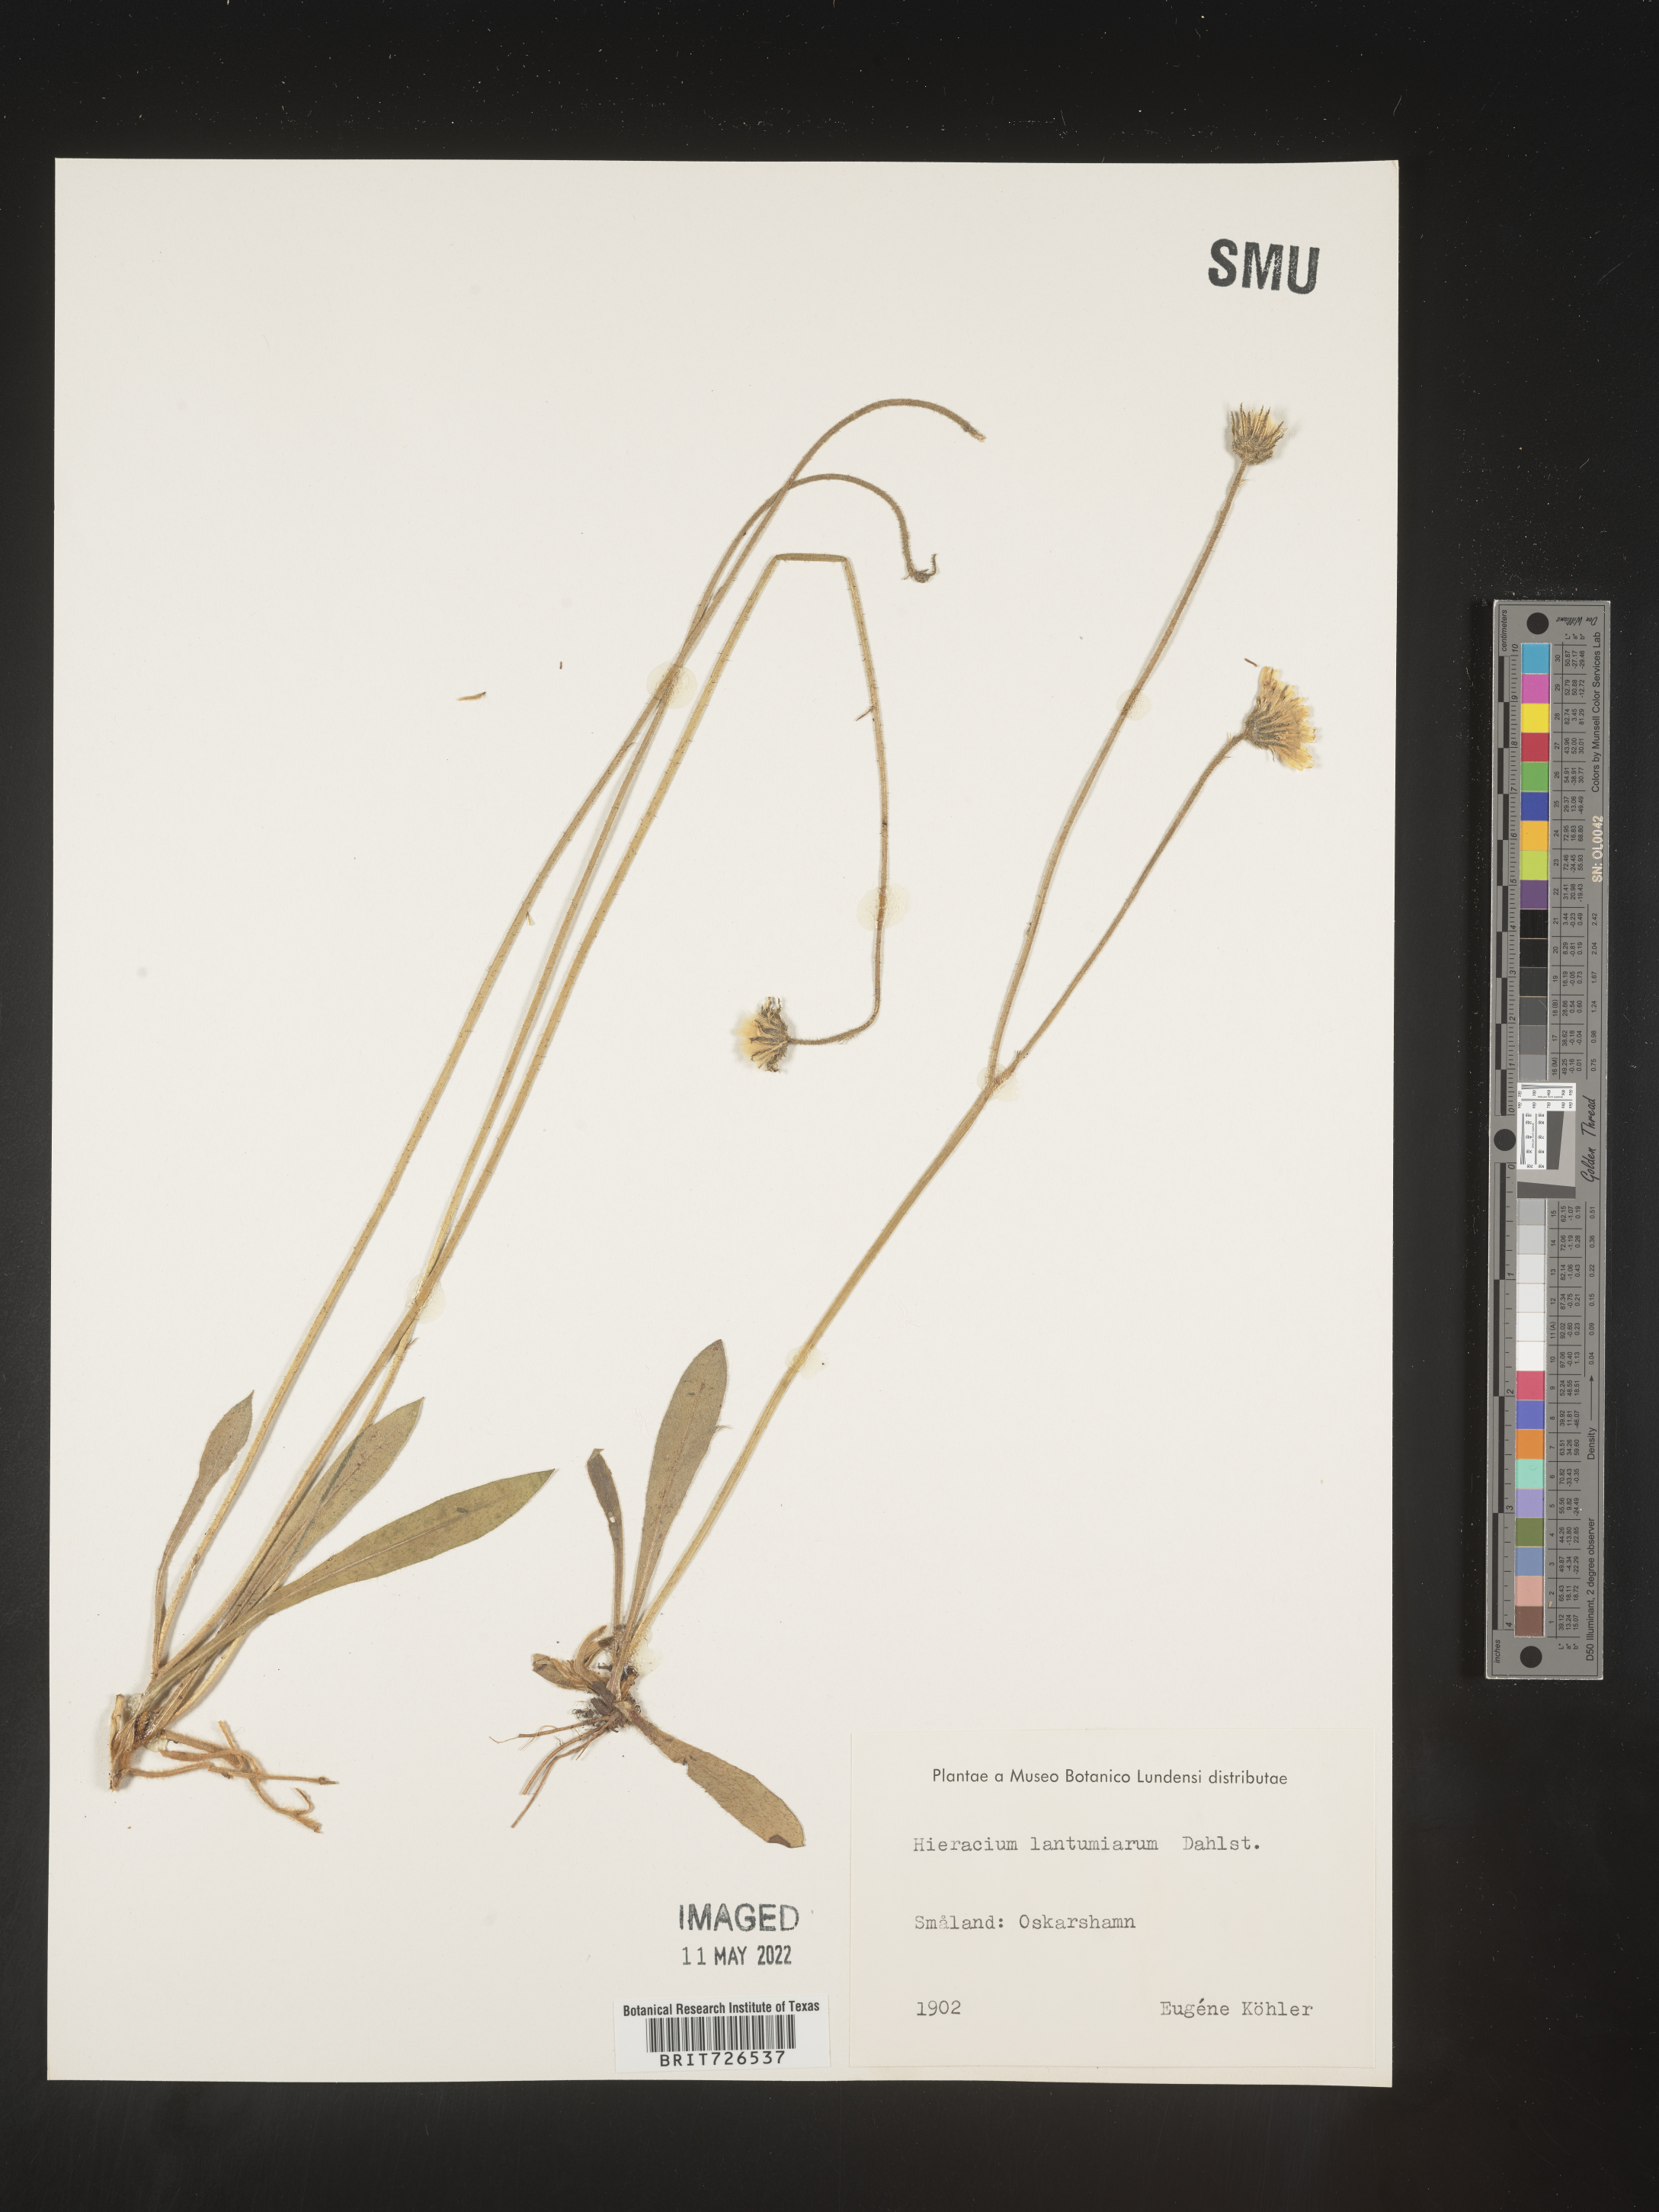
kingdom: Plantae
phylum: Tracheophyta
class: Magnoliopsida
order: Asterales
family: Asteraceae
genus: Hieracium
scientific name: Hieracium
